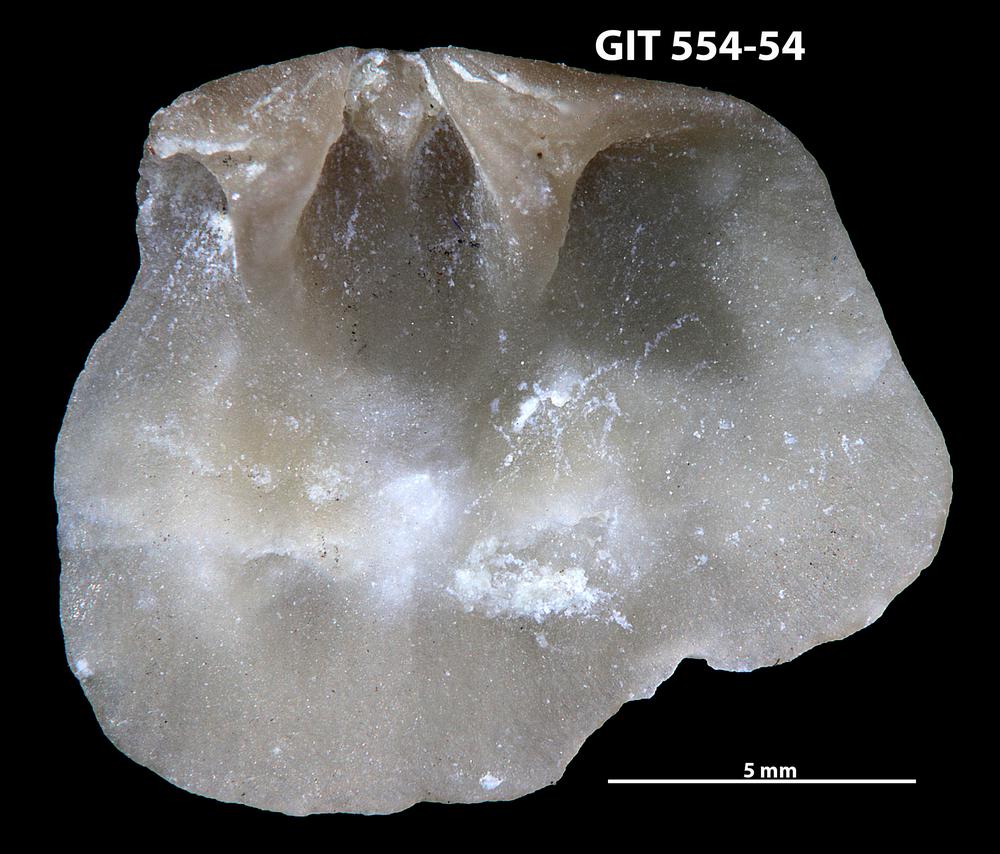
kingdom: Animalia
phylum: Brachiopoda
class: Rhynchonellata
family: Linoporellidae
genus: Linoporella
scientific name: Linoporella Orthis punctata
